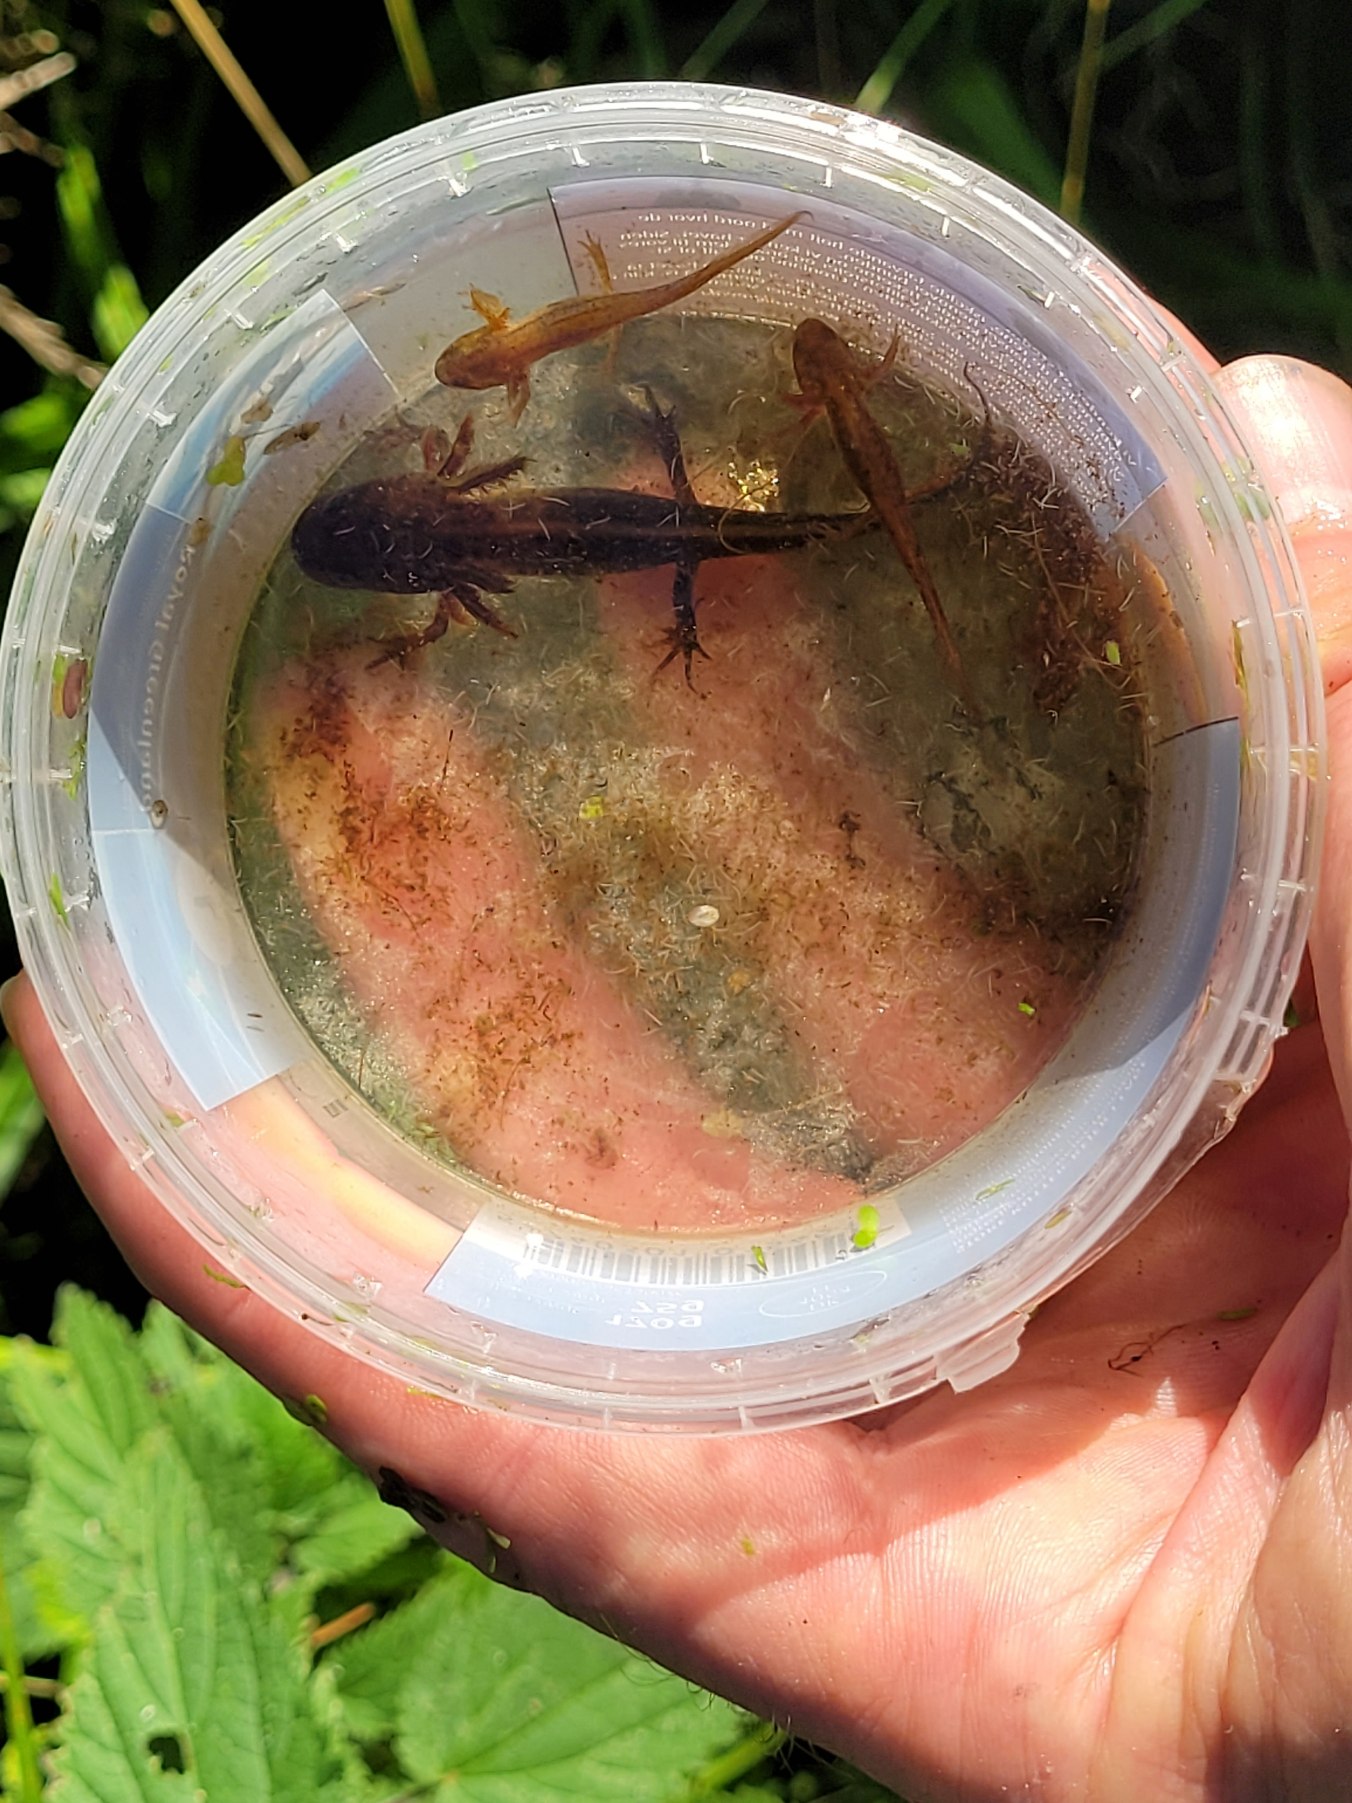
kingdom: Animalia
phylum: Chordata
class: Amphibia
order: Caudata
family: Salamandridae
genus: Lissotriton
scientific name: Lissotriton vulgaris
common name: Lille vandsalamander
